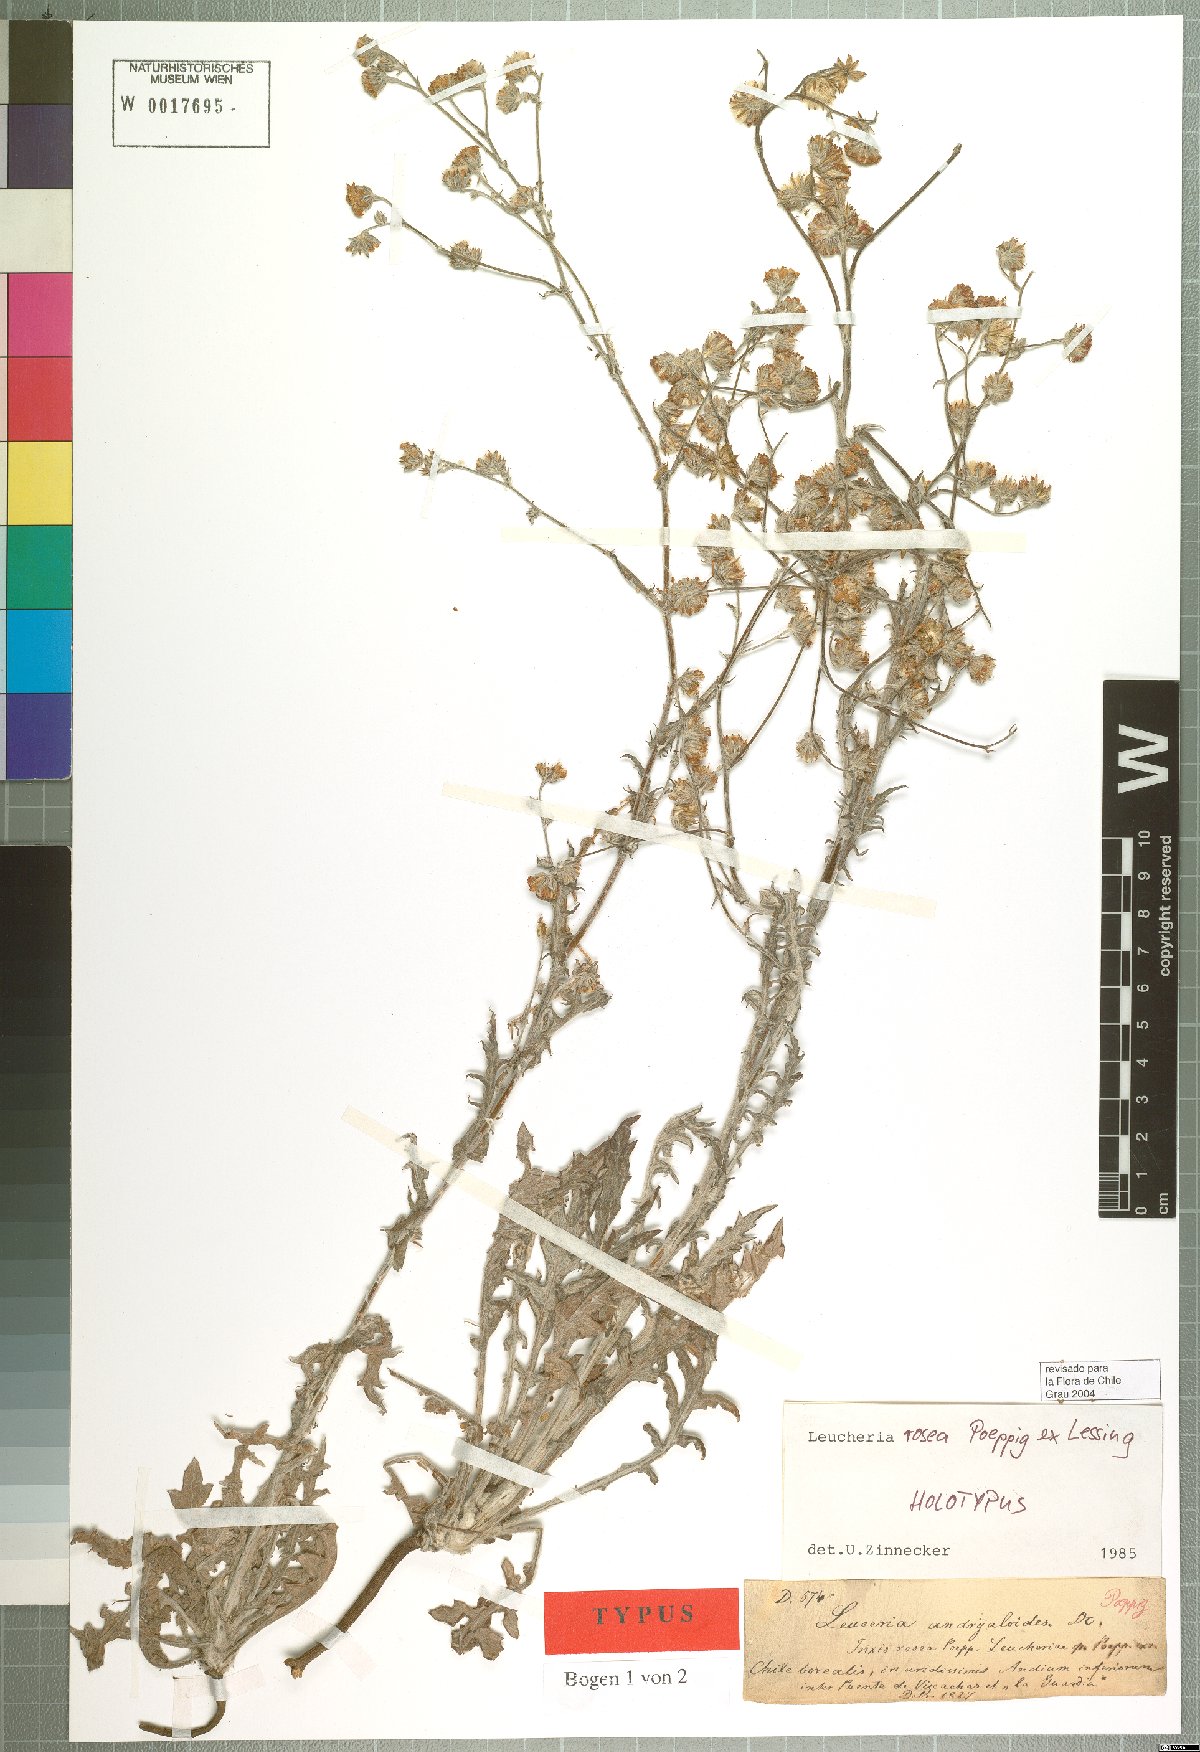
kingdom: Plantae
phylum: Tracheophyta
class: Magnoliopsida
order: Asterales
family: Asteraceae
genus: Leucheria
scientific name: Leucheria rosea
